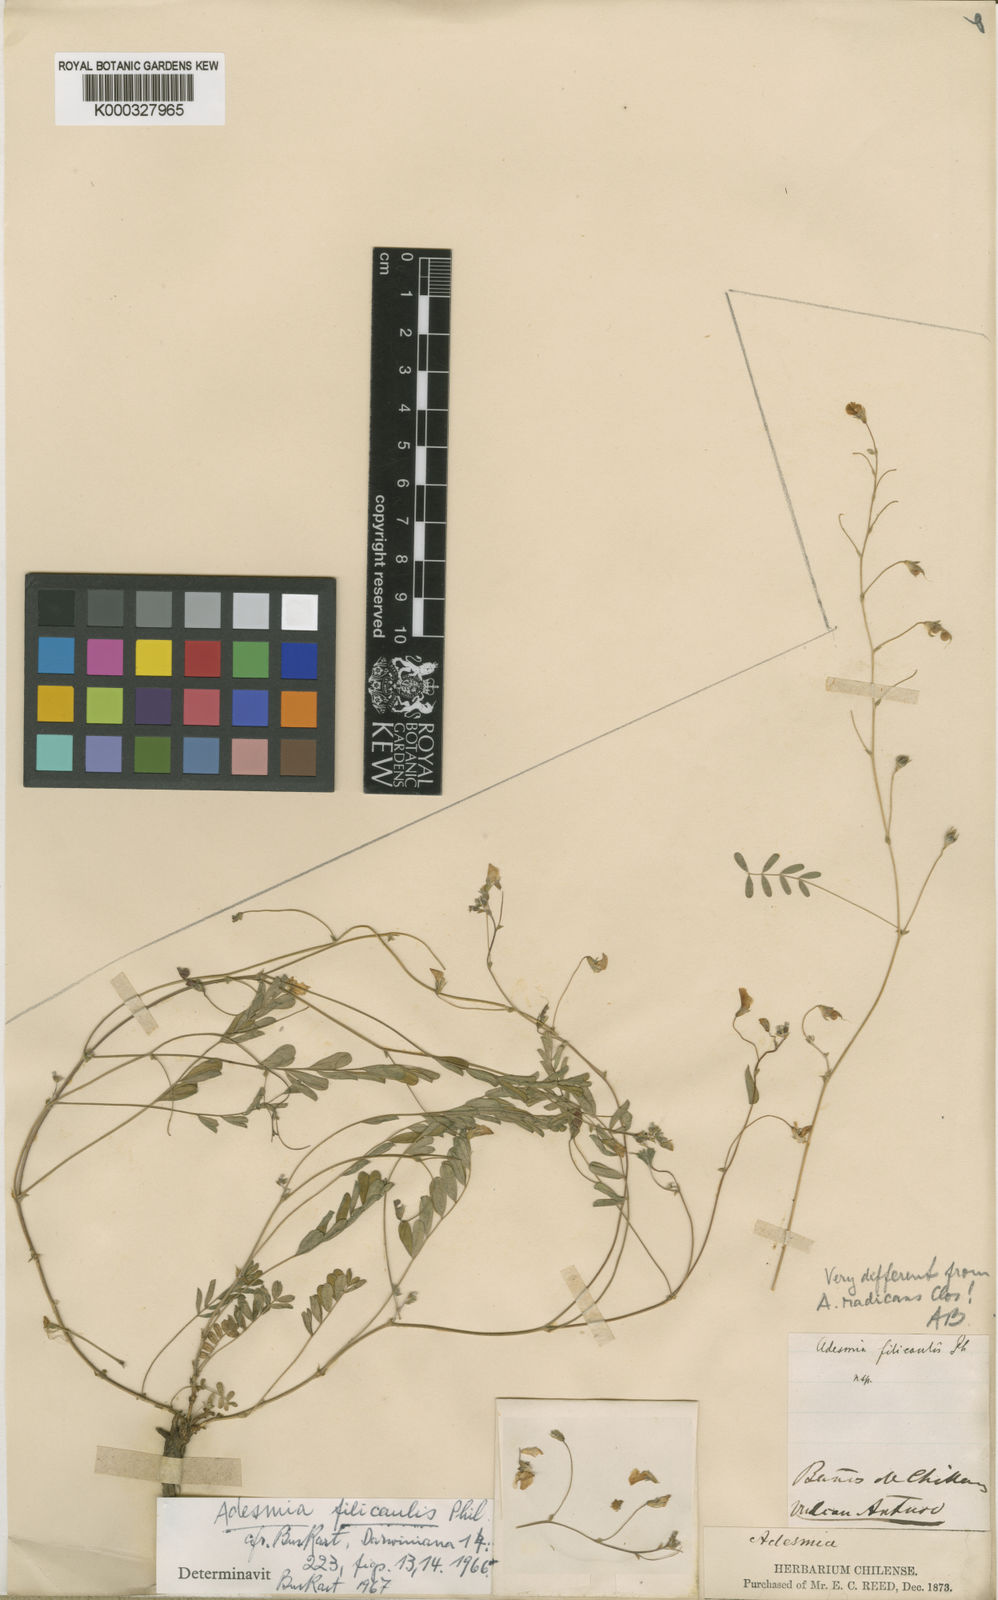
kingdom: Plantae
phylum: Tracheophyta
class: Magnoliopsida
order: Fabales
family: Fabaceae
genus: Adesmia
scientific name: Adesmia filicaulis
